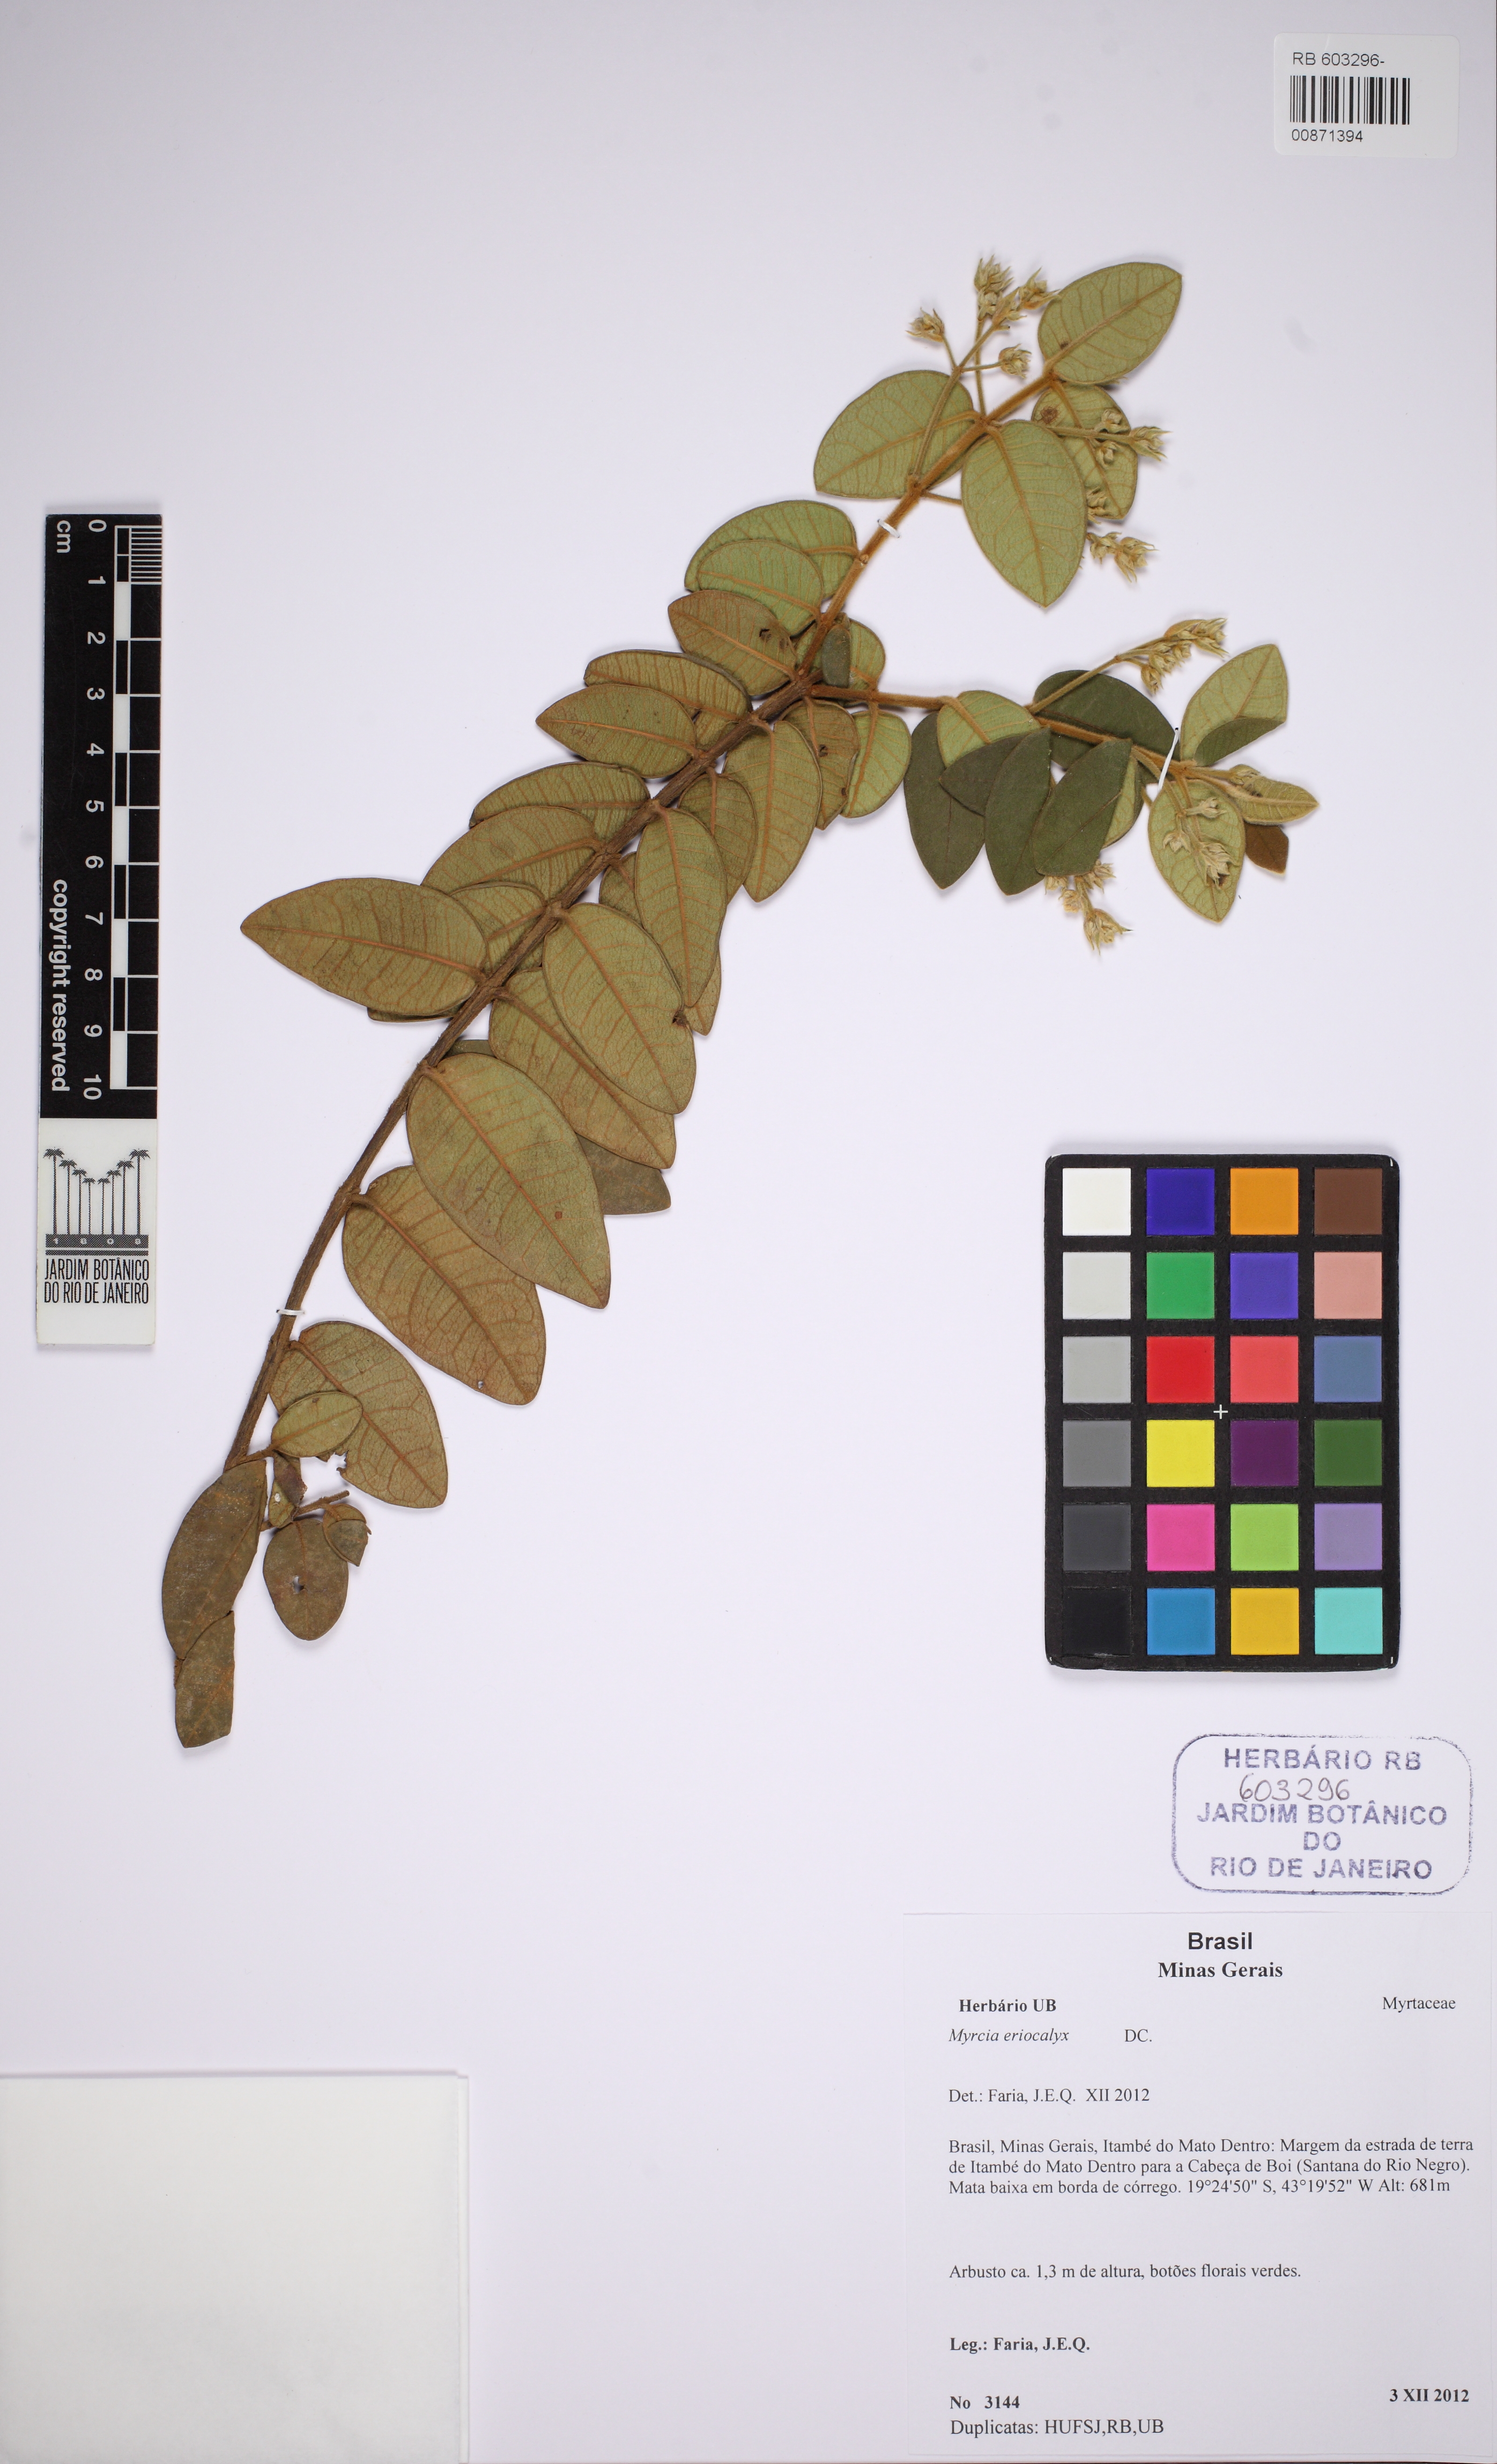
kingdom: Plantae
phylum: Tracheophyta
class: Magnoliopsida
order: Myrtales
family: Myrtaceae
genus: Myrcia
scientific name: Myrcia eriocalyx
